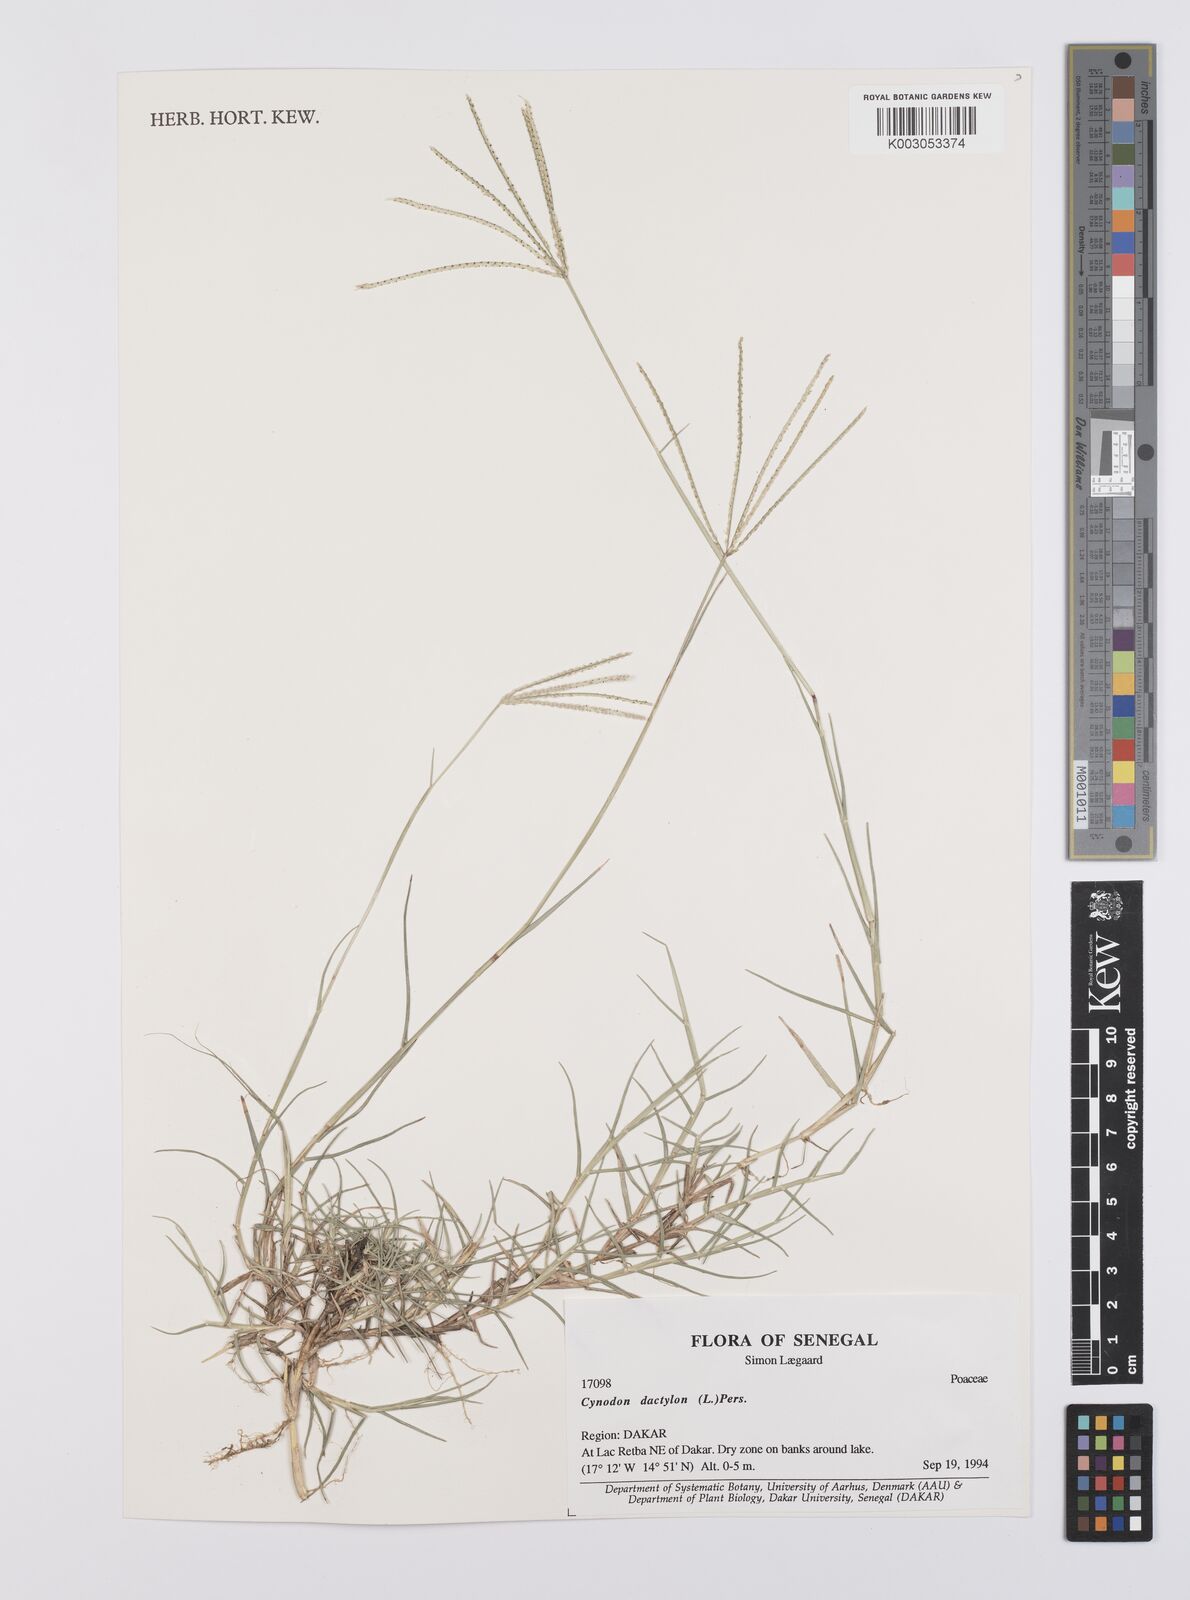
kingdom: Plantae
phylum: Tracheophyta
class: Liliopsida
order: Poales
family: Poaceae
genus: Cynodon
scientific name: Cynodon dactylon
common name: Bermuda grass
